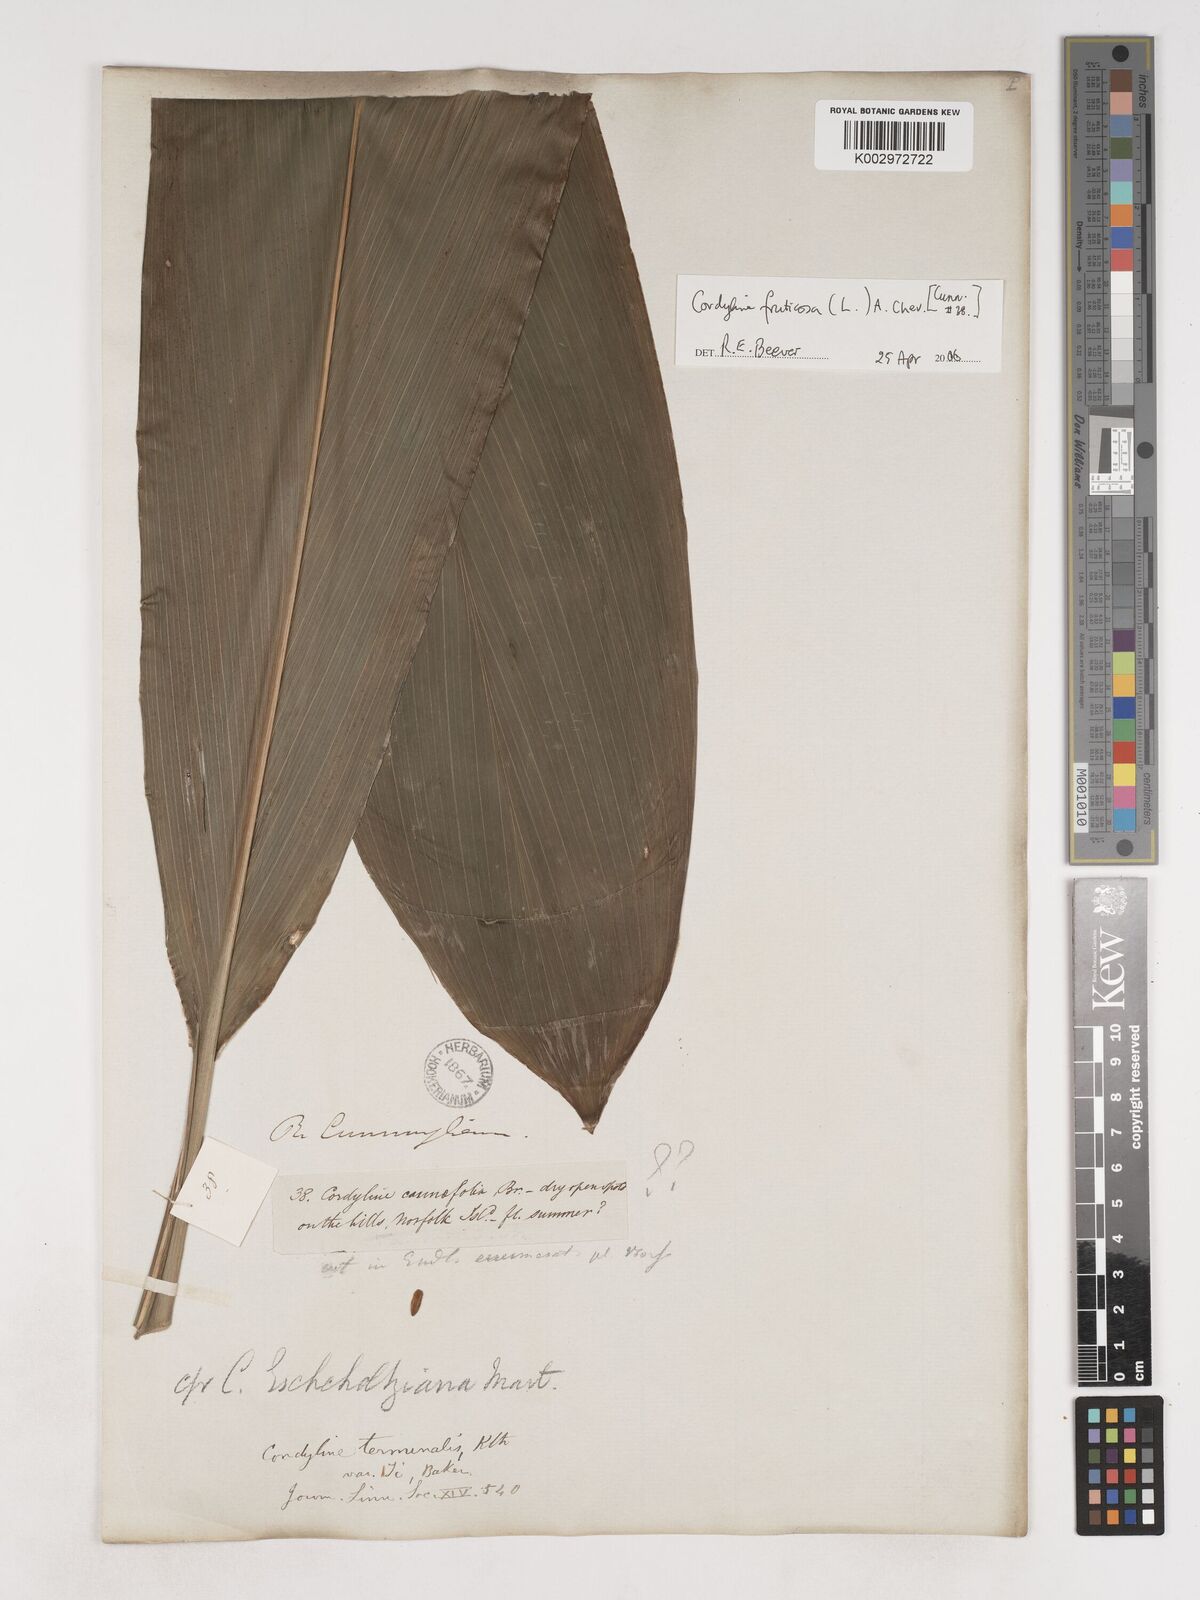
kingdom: Plantae
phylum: Tracheophyta
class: Liliopsida
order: Asparagales
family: Asparagaceae
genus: Cordyline
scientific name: Cordyline fruticosa
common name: Good-luck-plant
